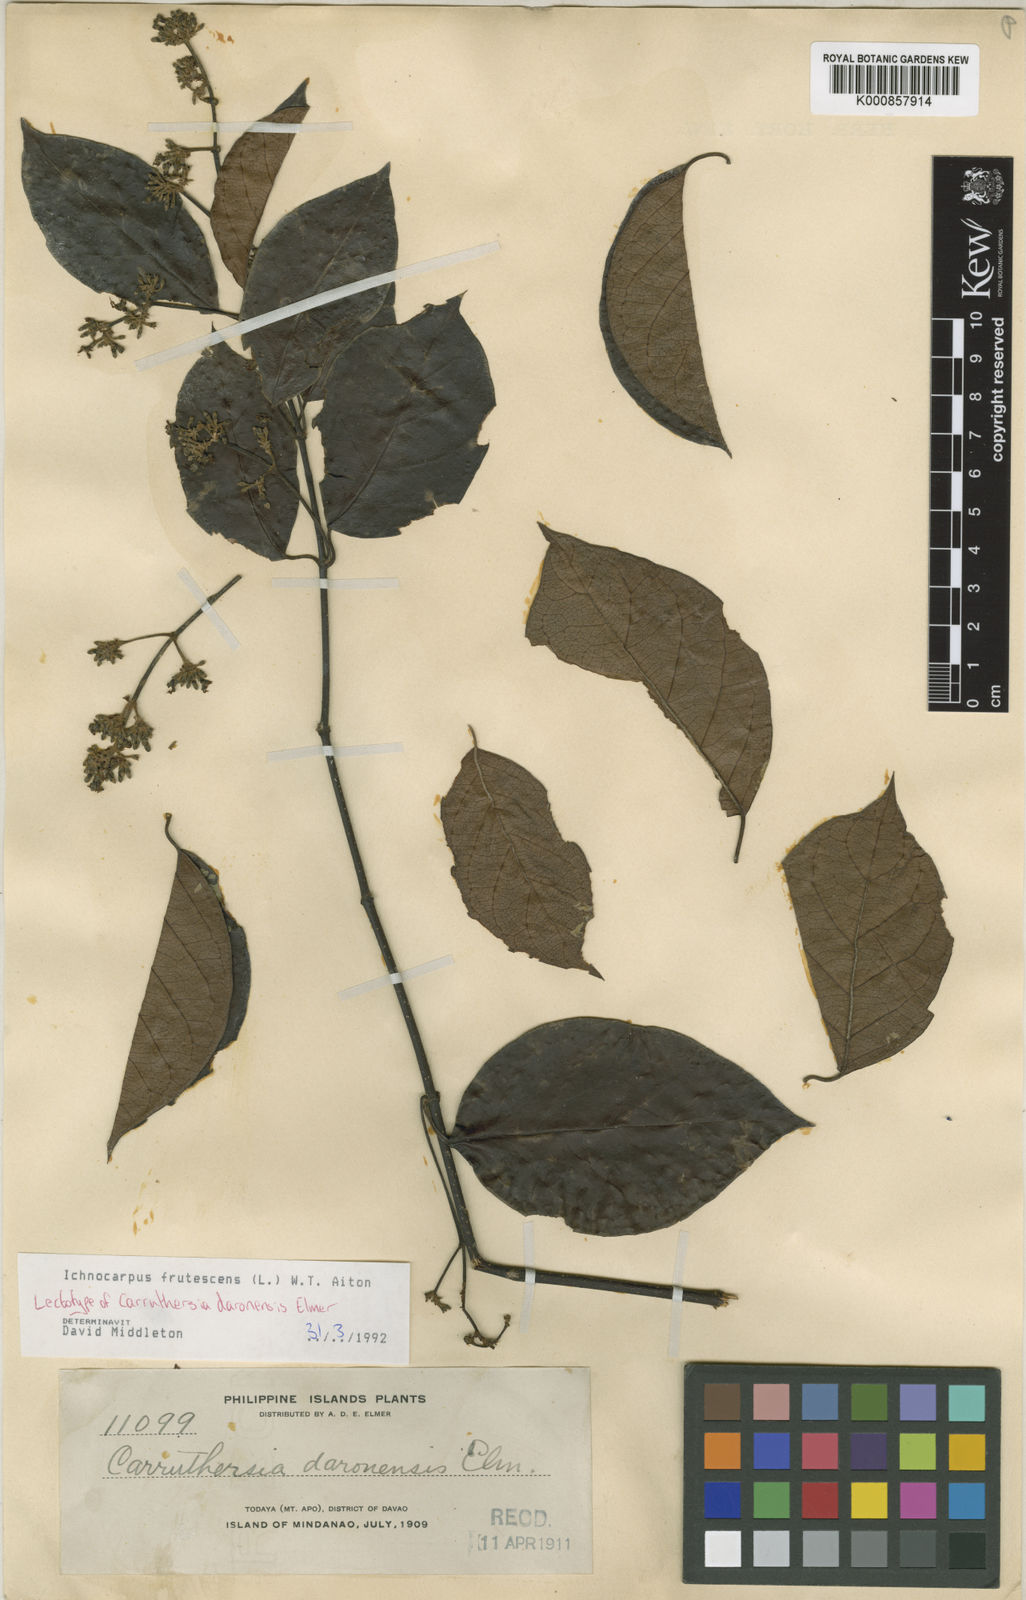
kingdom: Plantae
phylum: Tracheophyta
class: Magnoliopsida
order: Gentianales
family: Apocynaceae
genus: Ichnocarpus
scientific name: Ichnocarpus frutescens
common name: Ichnocarpus
